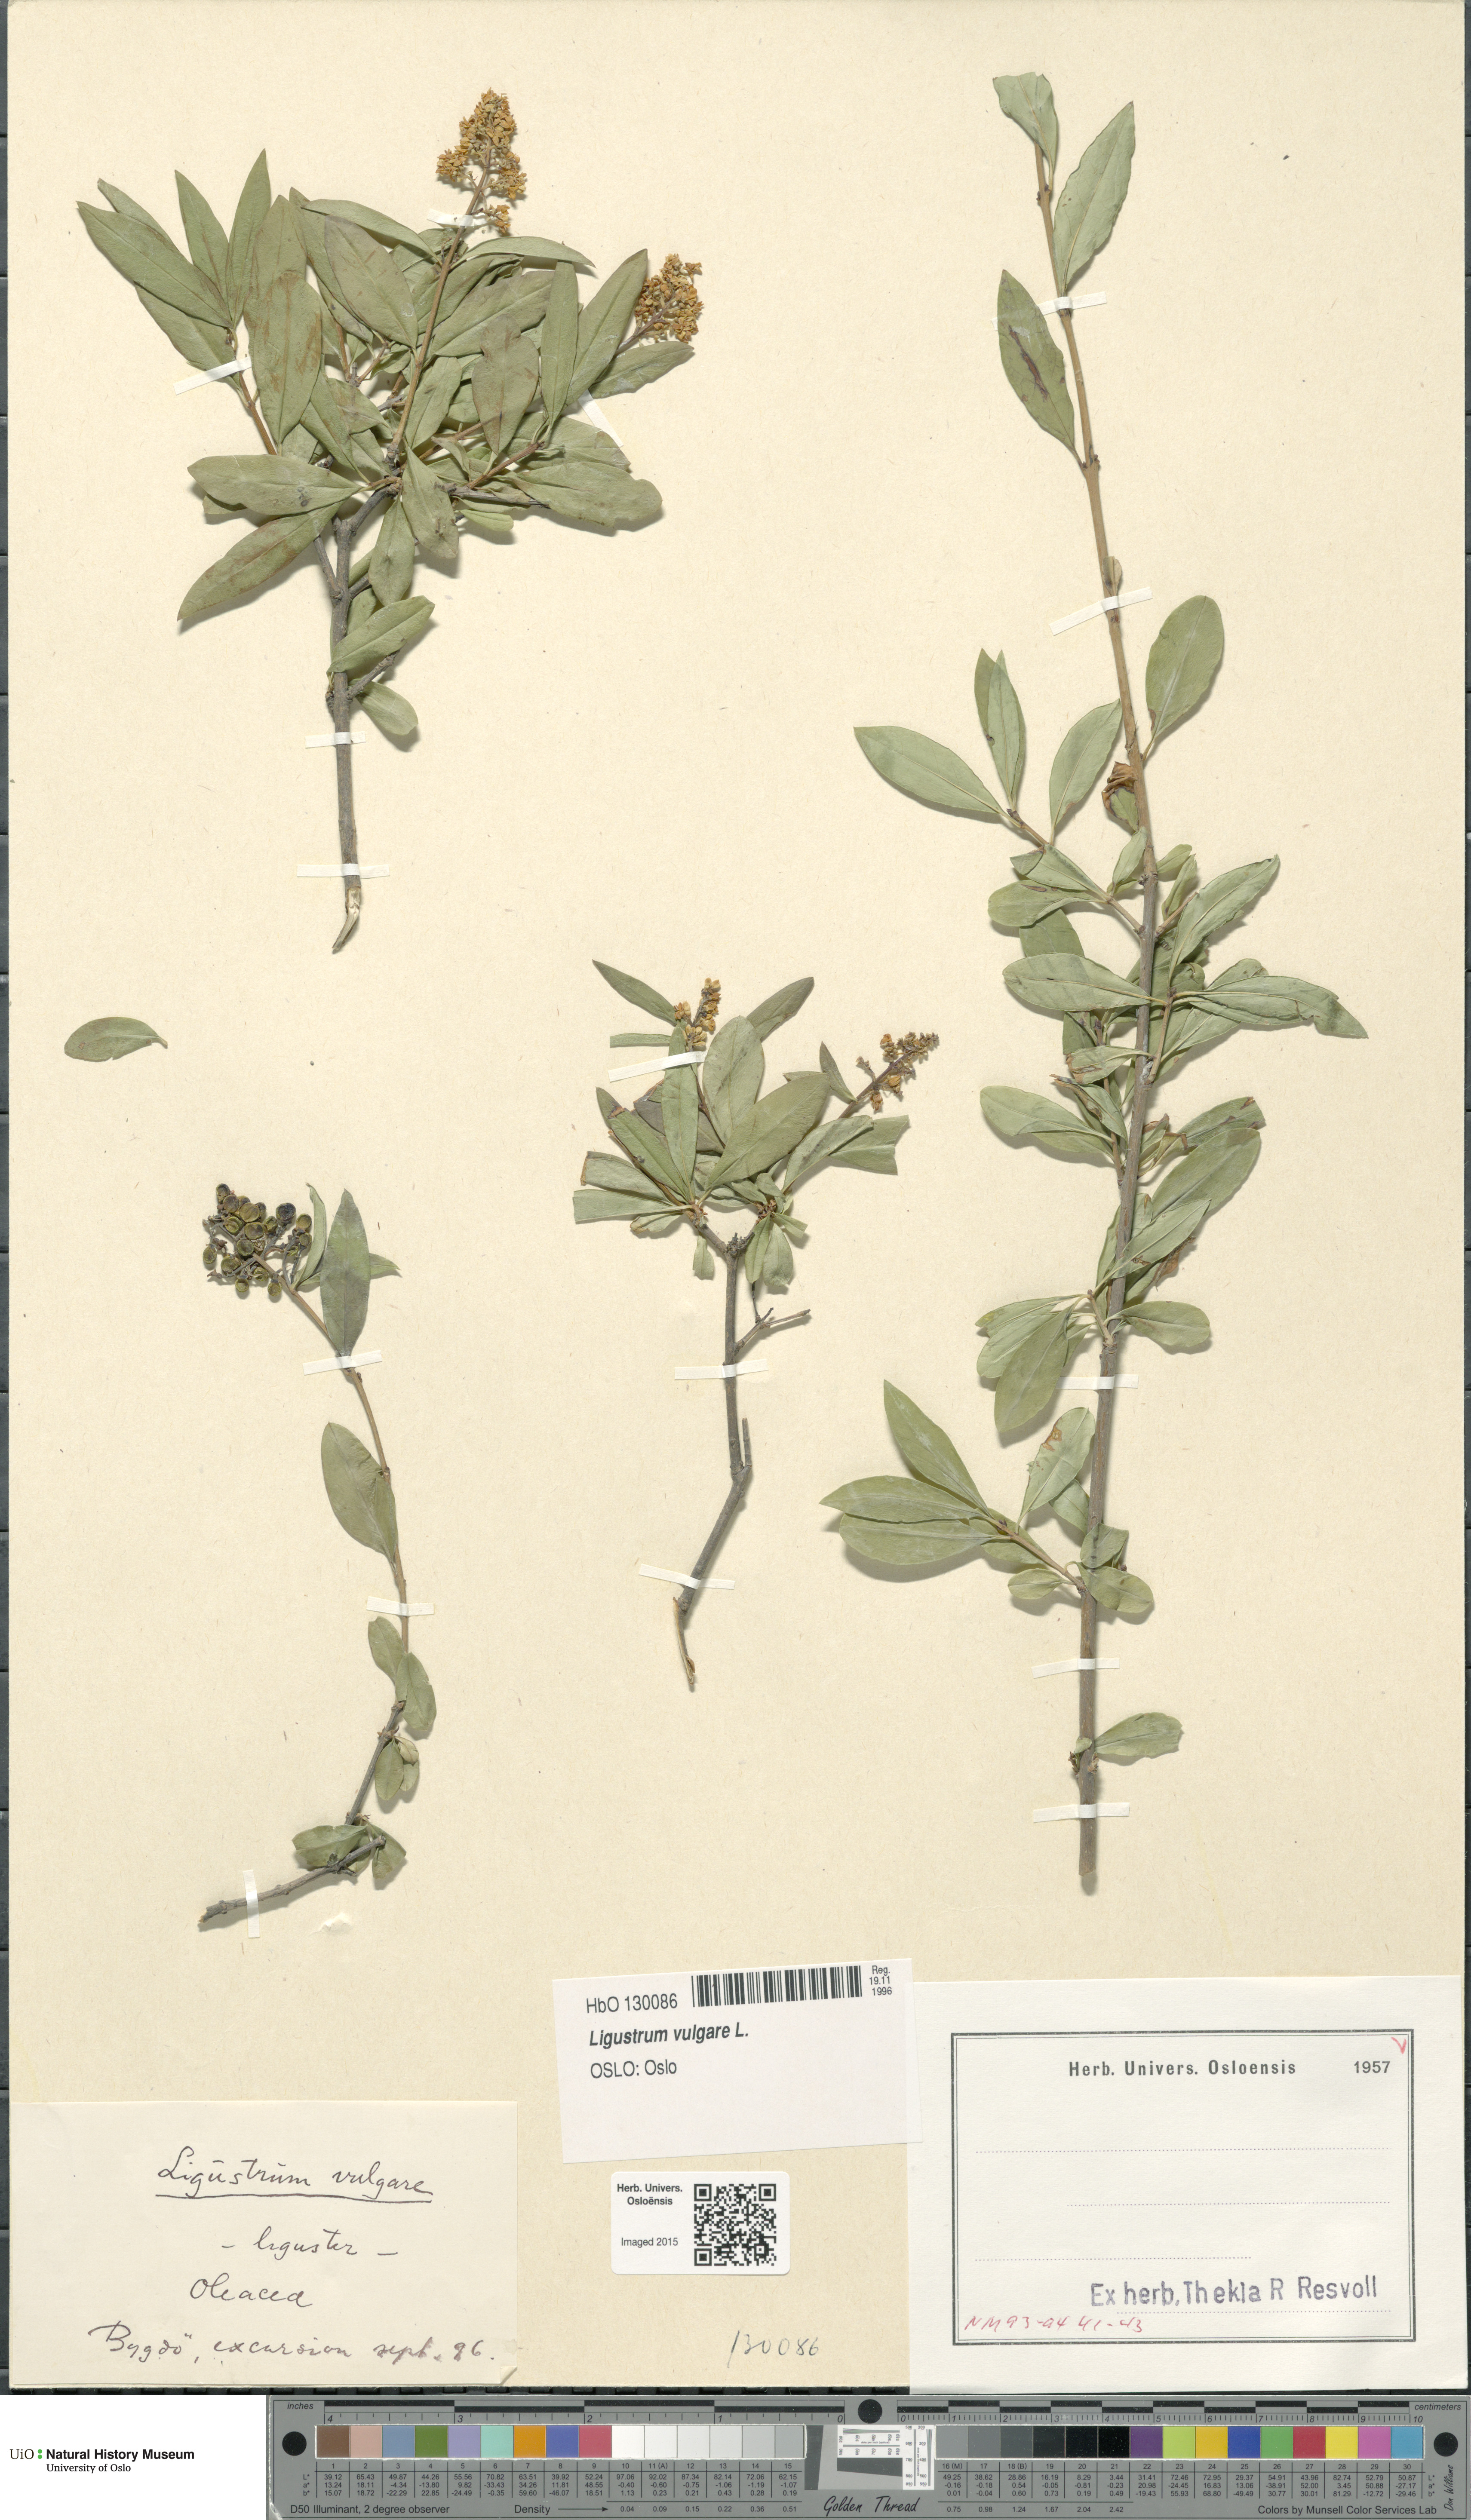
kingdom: Plantae
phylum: Tracheophyta
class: Magnoliopsida
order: Lamiales
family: Oleaceae
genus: Ligustrum
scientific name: Ligustrum vulgare
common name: Wild privet
